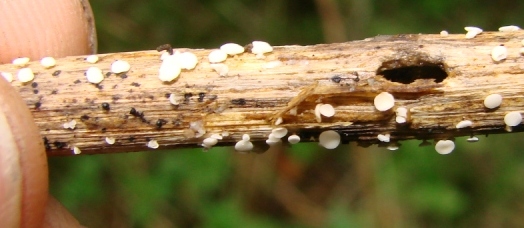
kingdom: Fungi
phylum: Ascomycota
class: Leotiomycetes
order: Helotiales
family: Pezizellaceae
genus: Calycina
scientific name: Calycina herbarum
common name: elfenbens-gulskive
